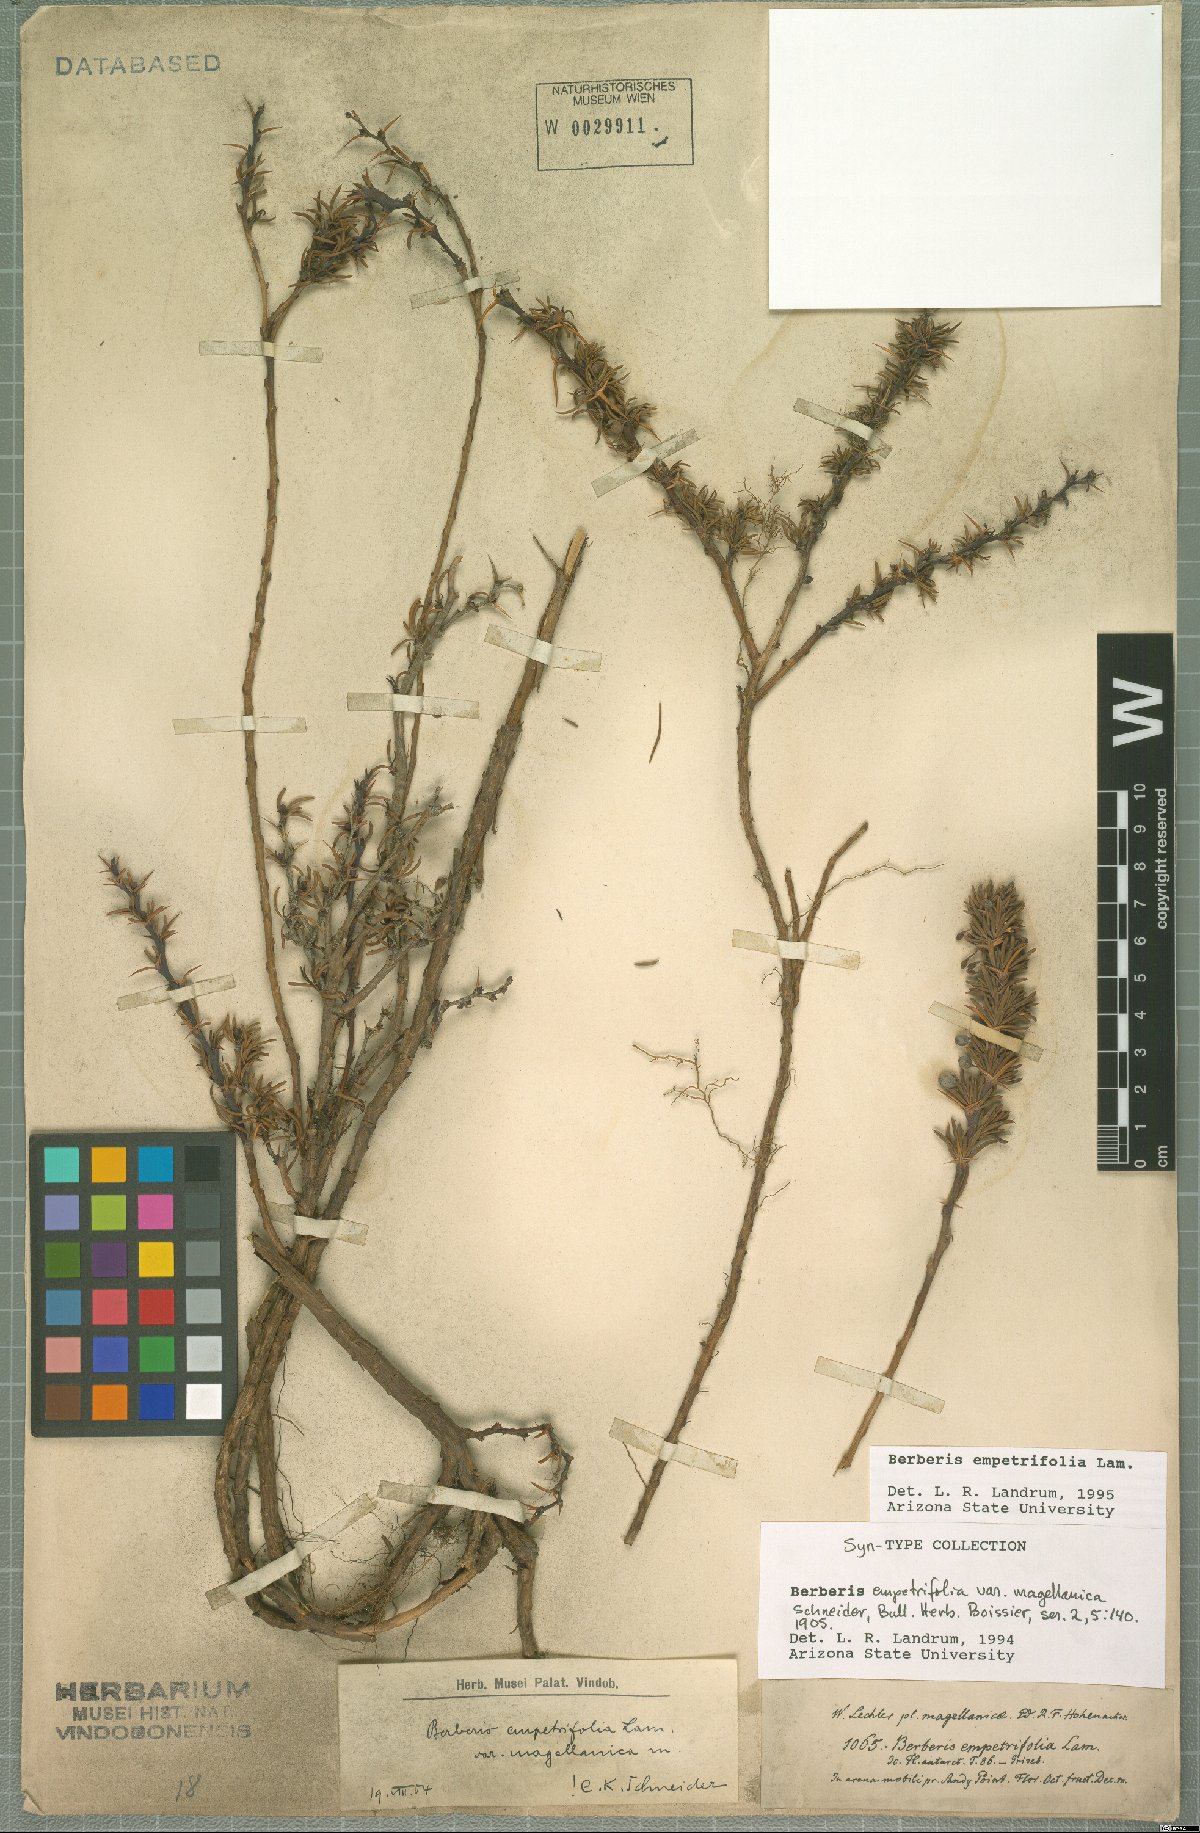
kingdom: Plantae
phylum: Tracheophyta
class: Magnoliopsida
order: Ranunculales
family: Berberidaceae
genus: Berberis
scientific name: Berberis empetrifolia
